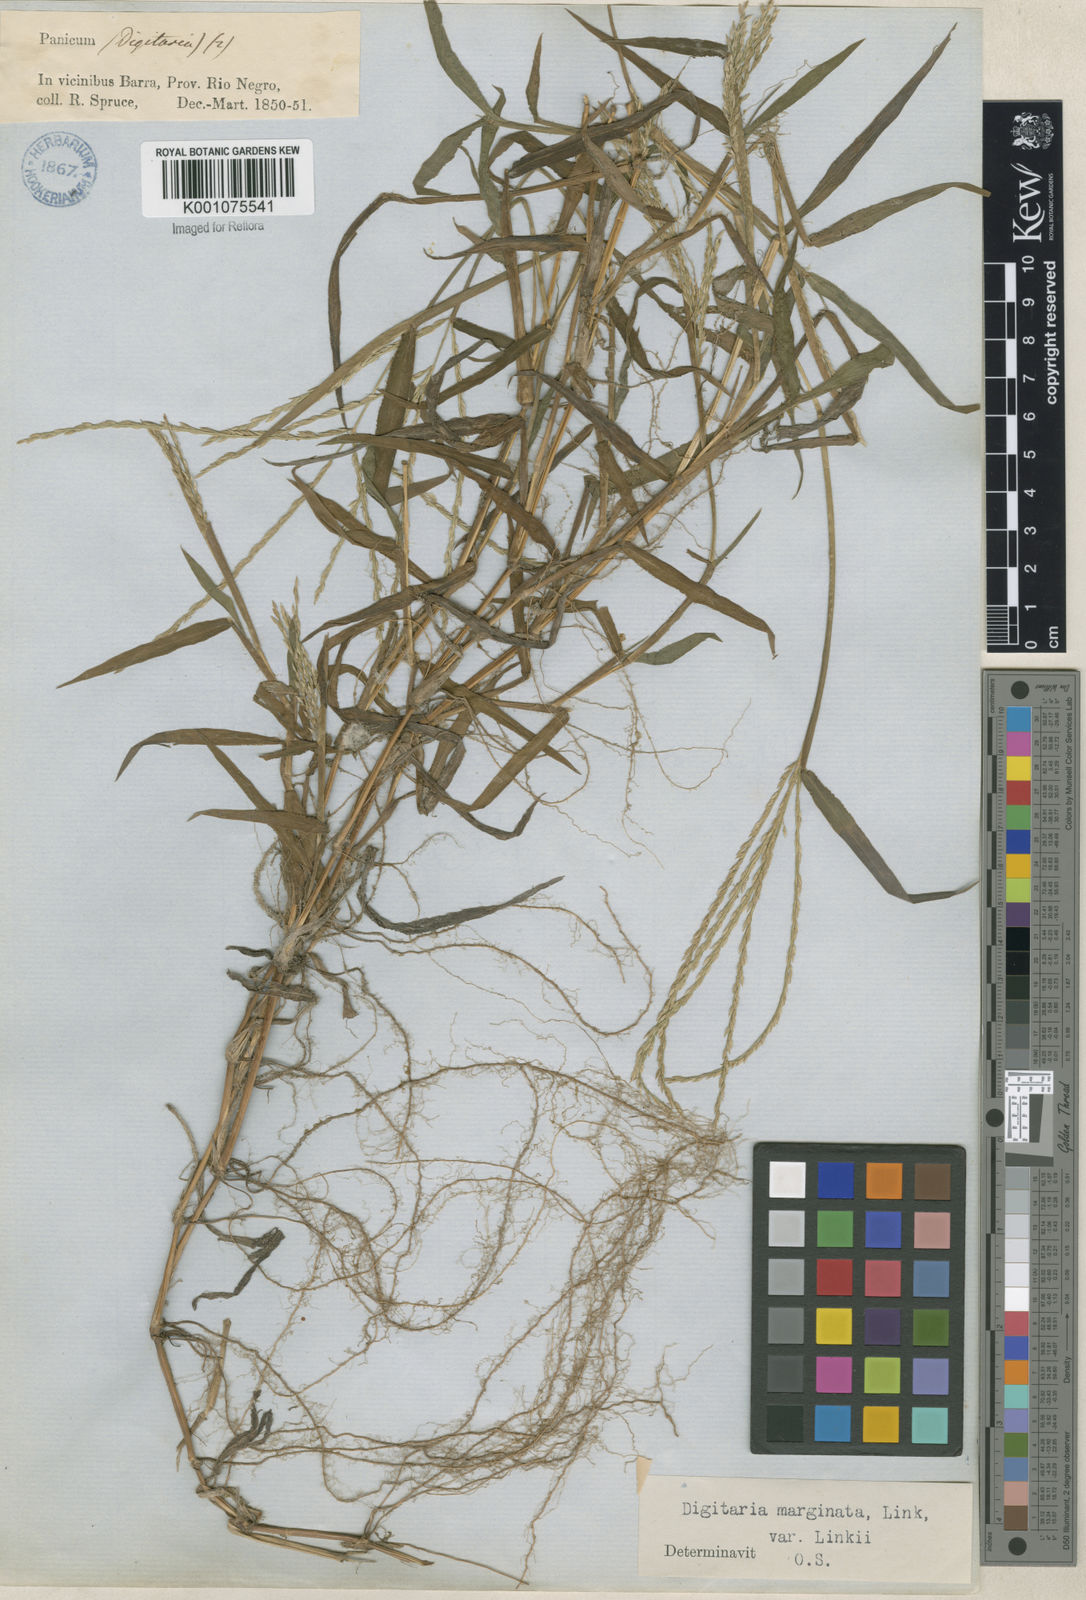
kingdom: Plantae
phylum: Tracheophyta
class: Liliopsida
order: Poales
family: Poaceae
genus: Digitaria
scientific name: Digitaria ciliaris
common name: Tropical finger-grass
